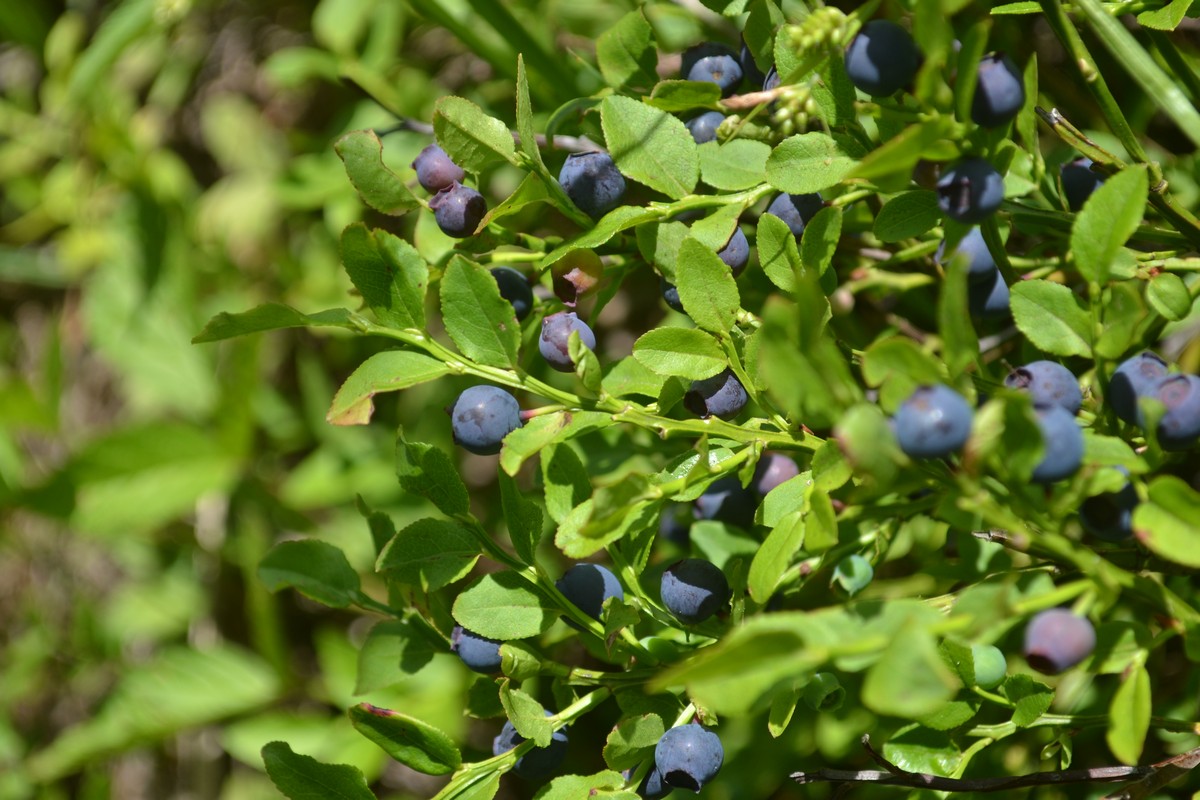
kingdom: Plantae
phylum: Tracheophyta
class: Magnoliopsida
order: Ericales
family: Ericaceae
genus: Vaccinium
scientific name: Vaccinium myrtillus
